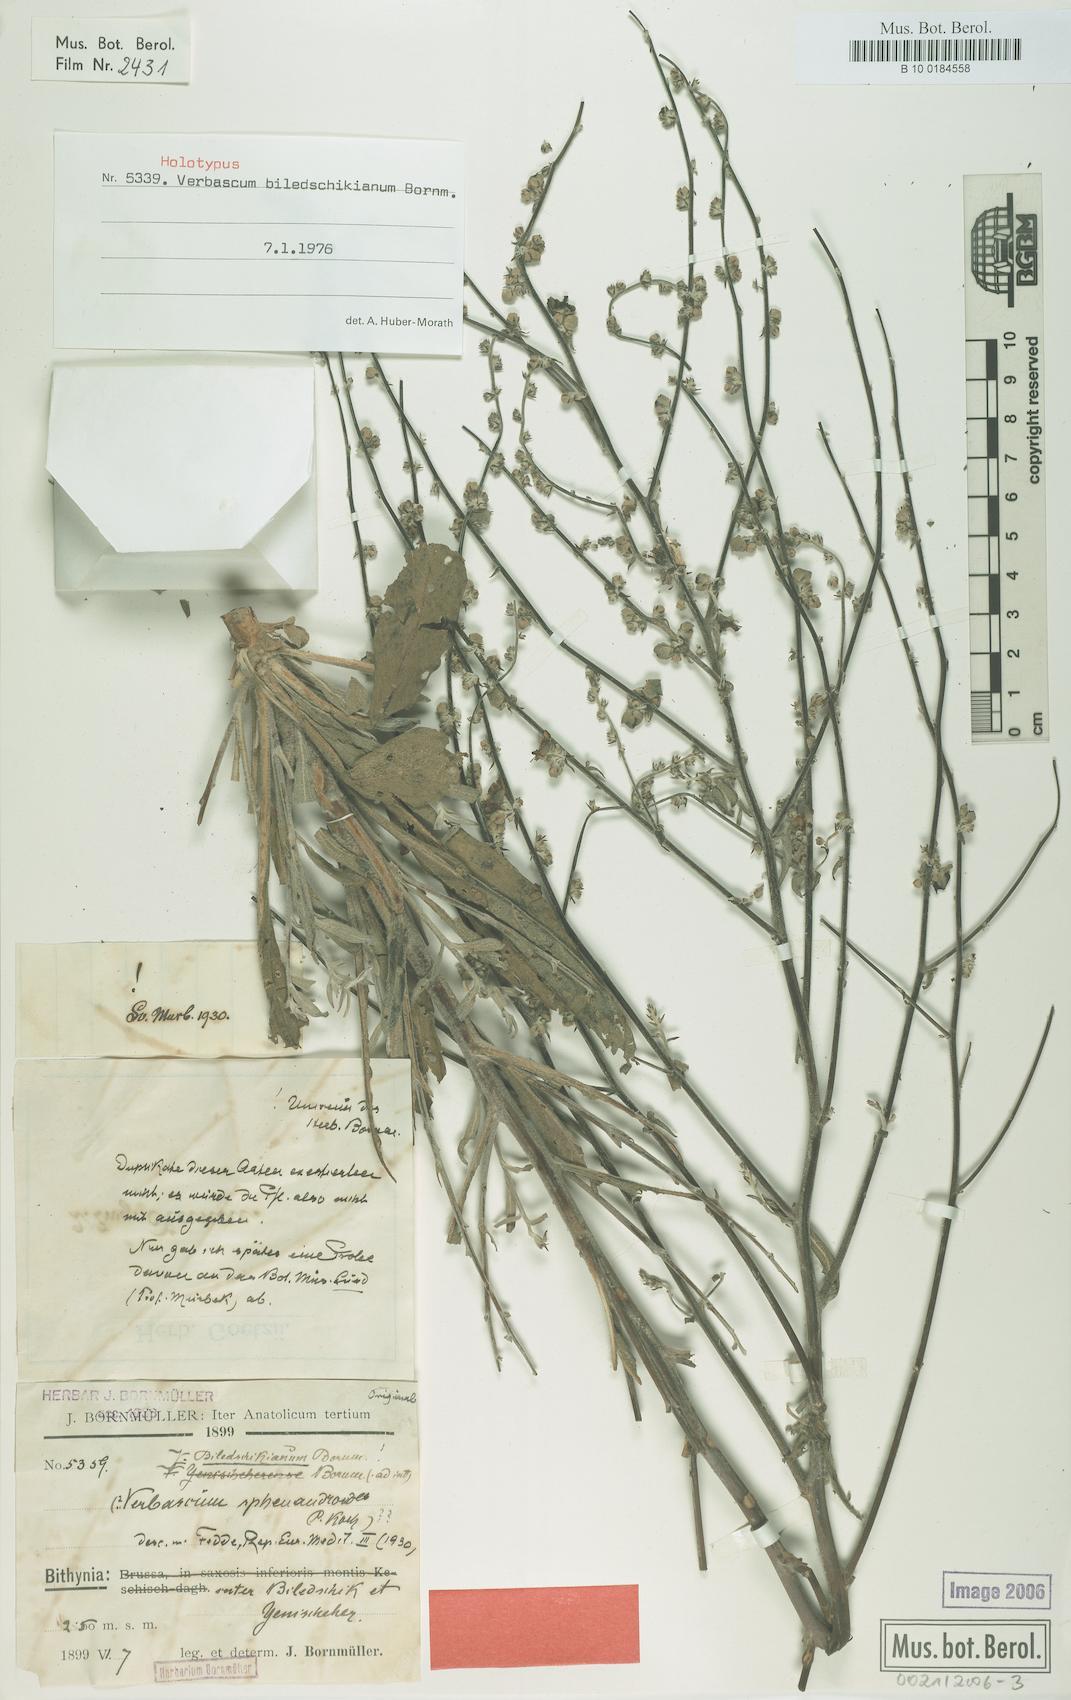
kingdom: Plantae
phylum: Tracheophyta
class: Magnoliopsida
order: Lamiales
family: Scrophulariaceae
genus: Verbascum
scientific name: Verbascum biledschikianum
